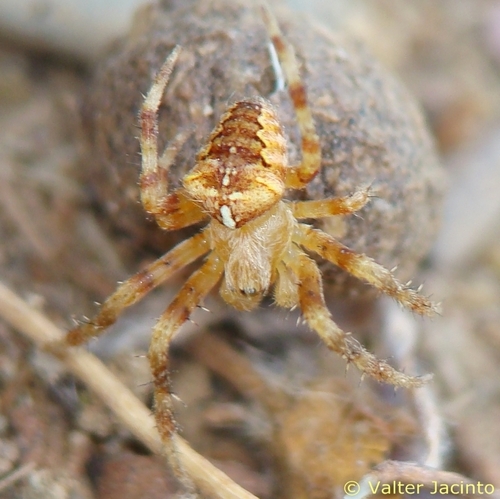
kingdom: Animalia
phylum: Arthropoda
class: Arachnida
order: Araneae
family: Araneidae
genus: Araneus
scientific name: Araneus diadematus
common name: Cross orbweaver
